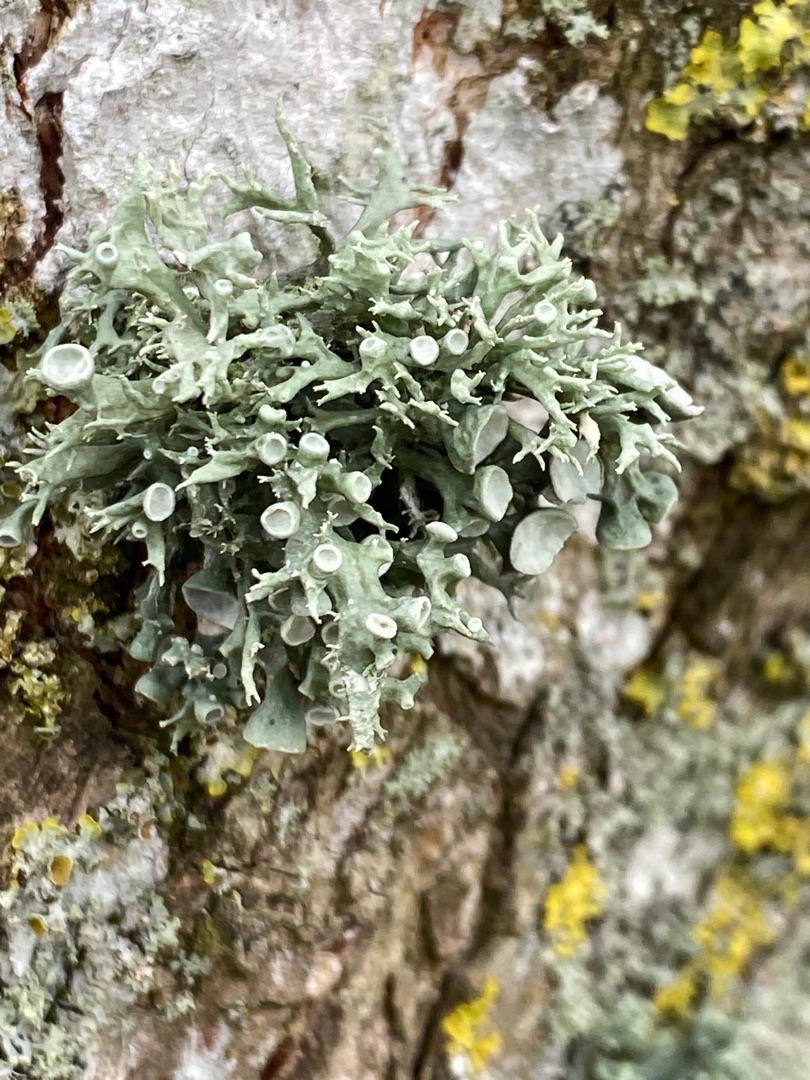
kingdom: Fungi
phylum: Ascomycota
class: Lecanoromycetes
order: Lecanorales
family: Ramalinaceae
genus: Ramalina
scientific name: Ramalina fastigiata
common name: Tue-grenlav
